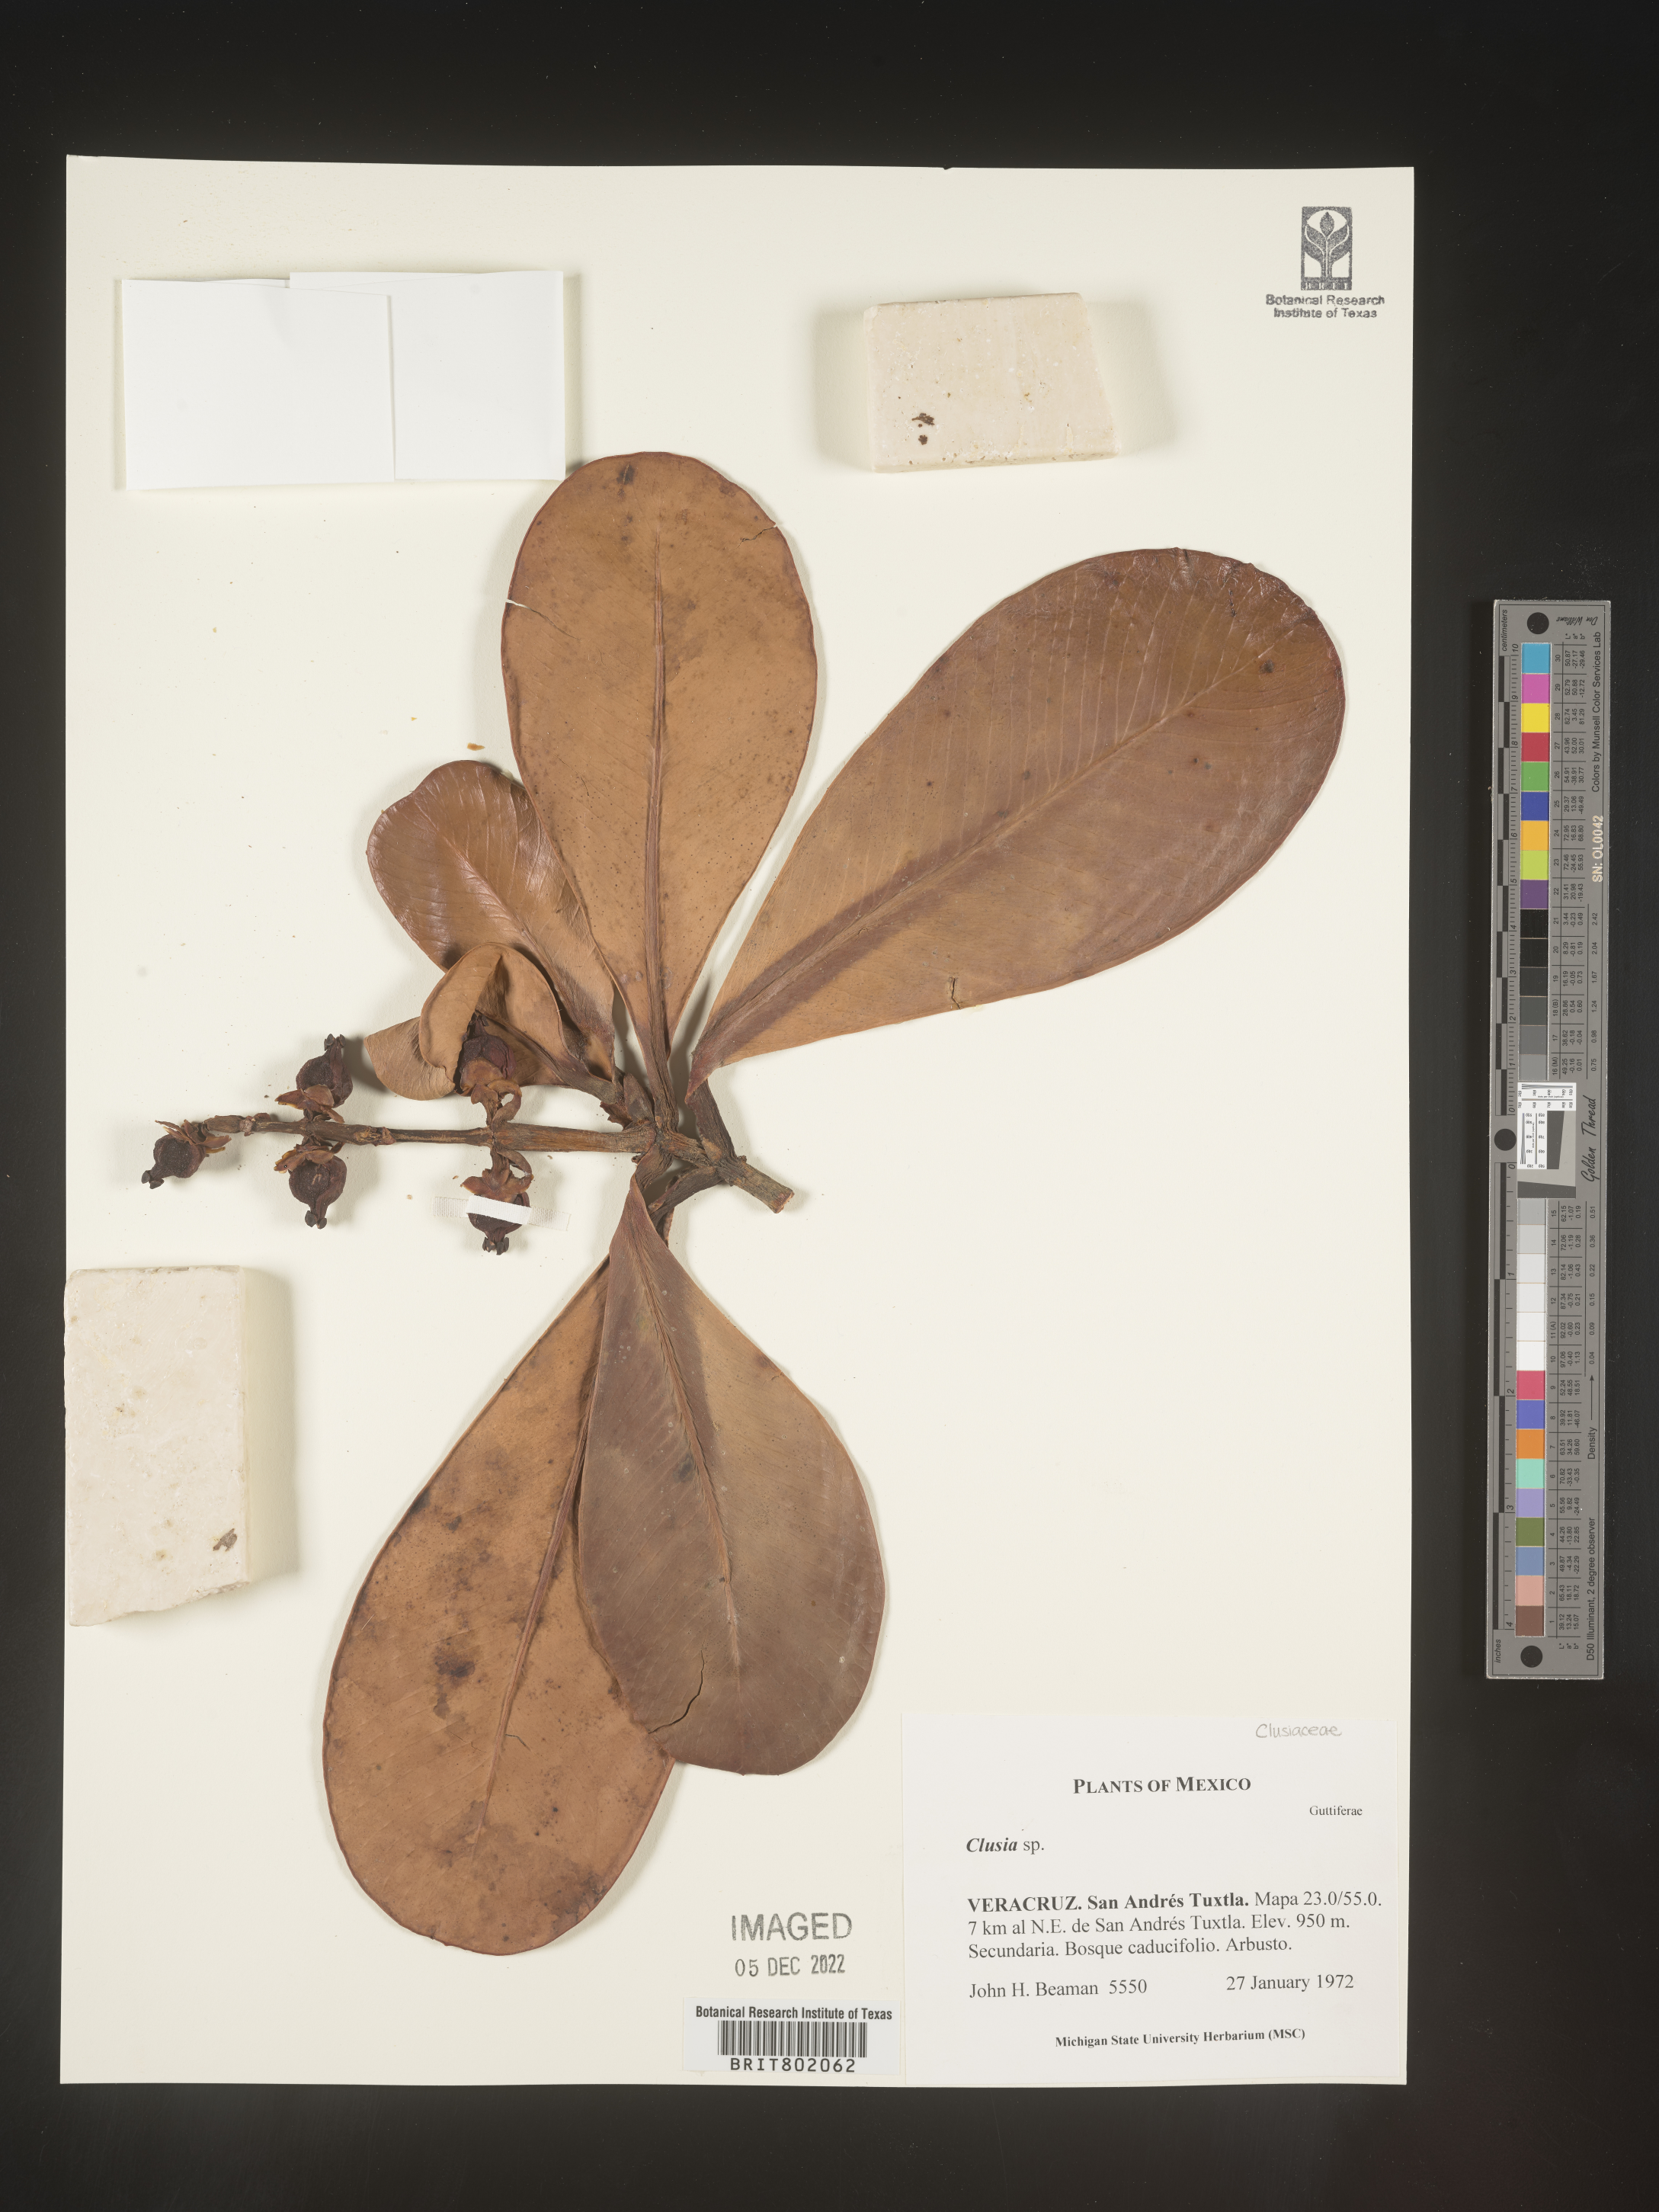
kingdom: Plantae
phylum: Tracheophyta
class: Magnoliopsida
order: Malpighiales
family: Clusiaceae
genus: Clusia
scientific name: Clusia
